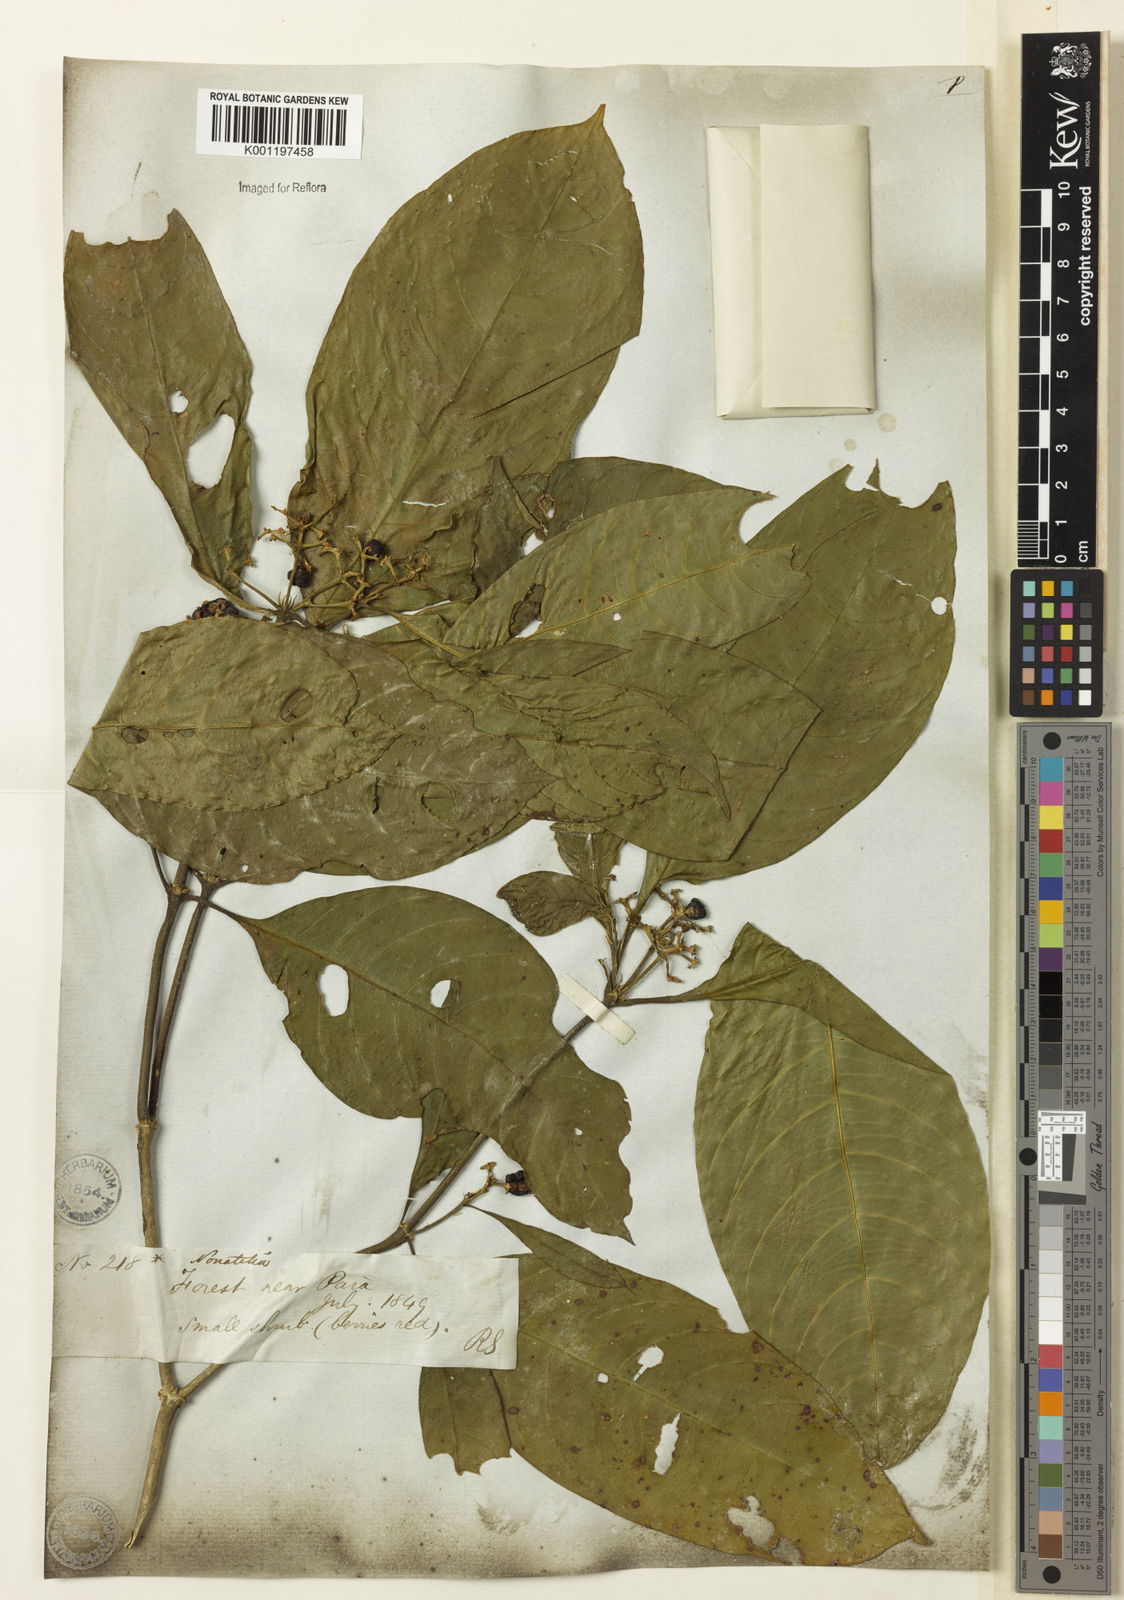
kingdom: Plantae
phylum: Tracheophyta
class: Magnoliopsida
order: Gentianales
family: Rubiaceae
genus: Palicourea
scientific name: Palicourea racemosa
